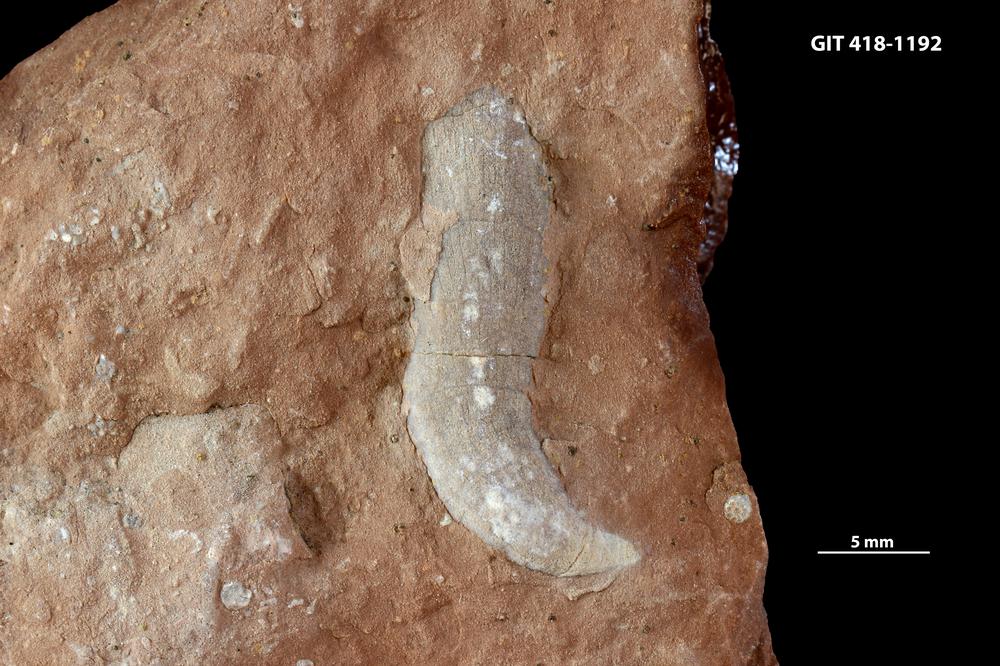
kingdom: Animalia
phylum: Porifera
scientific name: Porifera
